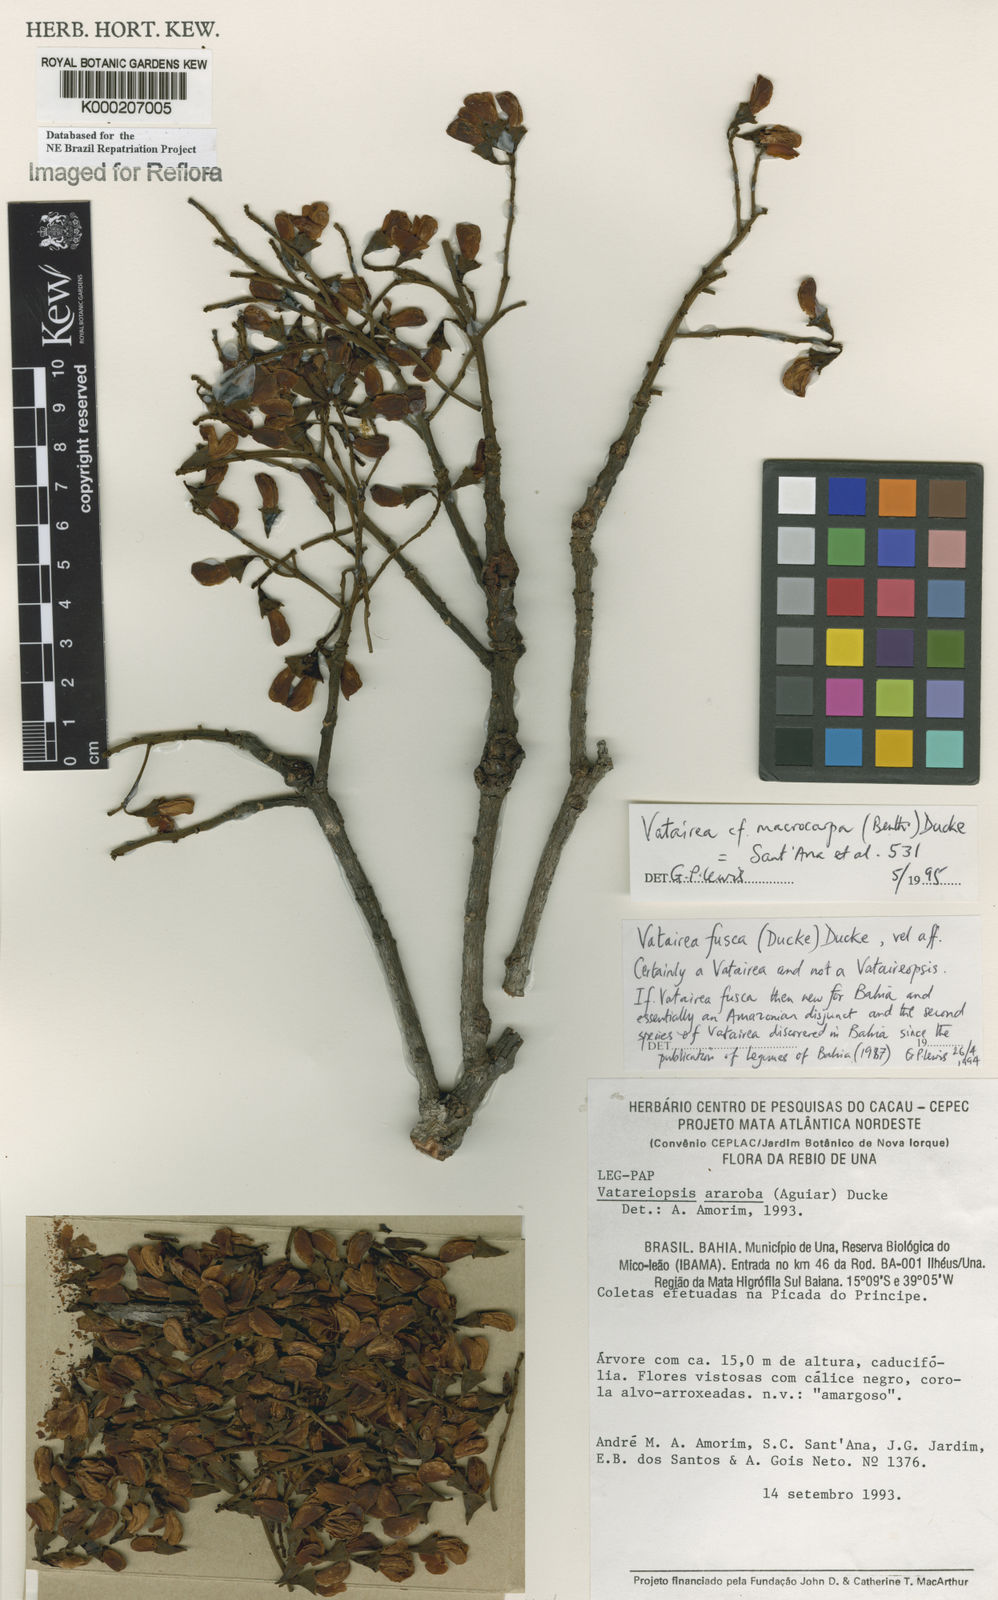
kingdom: Plantae
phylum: Tracheophyta
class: Magnoliopsida
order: Fabales
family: Fabaceae
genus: Vatairea
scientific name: Vatairea
